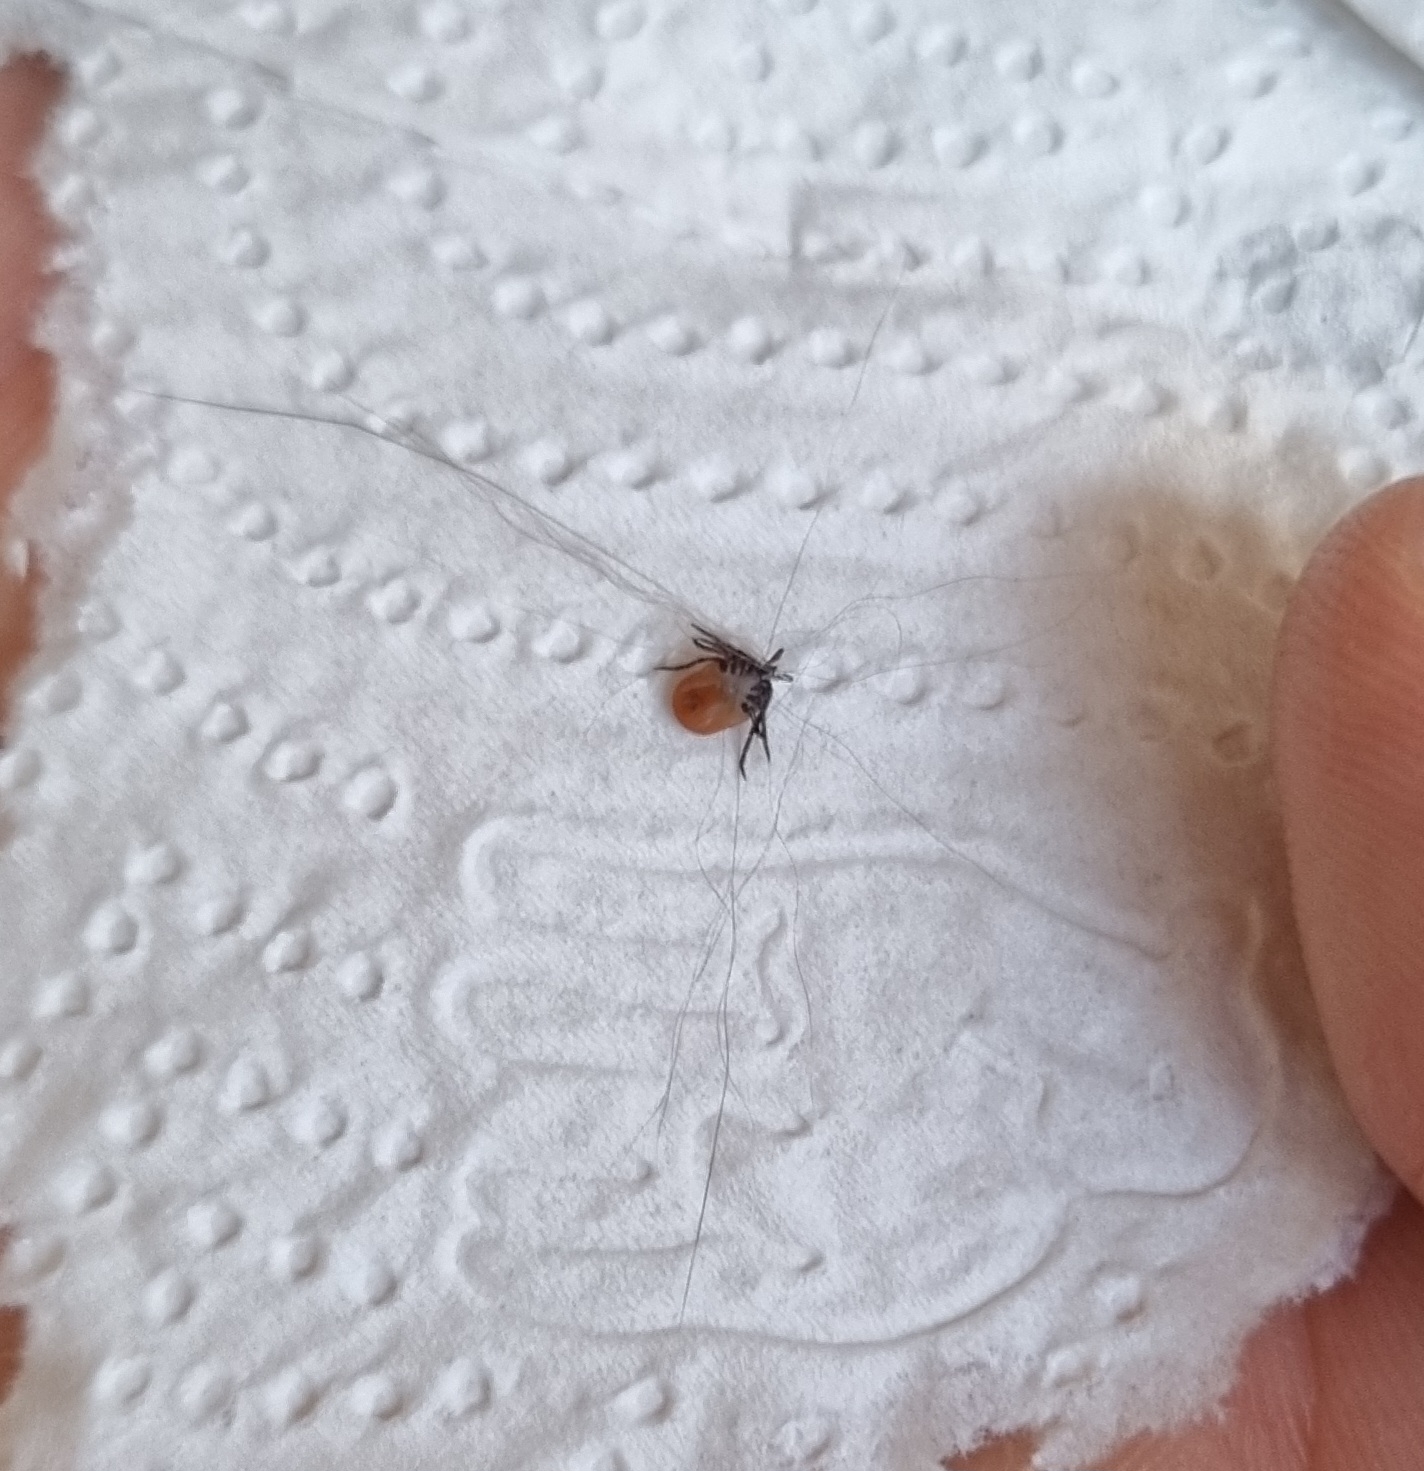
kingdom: Animalia
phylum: Arthropoda
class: Arachnida
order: Ixodida
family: Ixodidae
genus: Ixodes
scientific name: Ixodes ricinus
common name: Skovflåt
